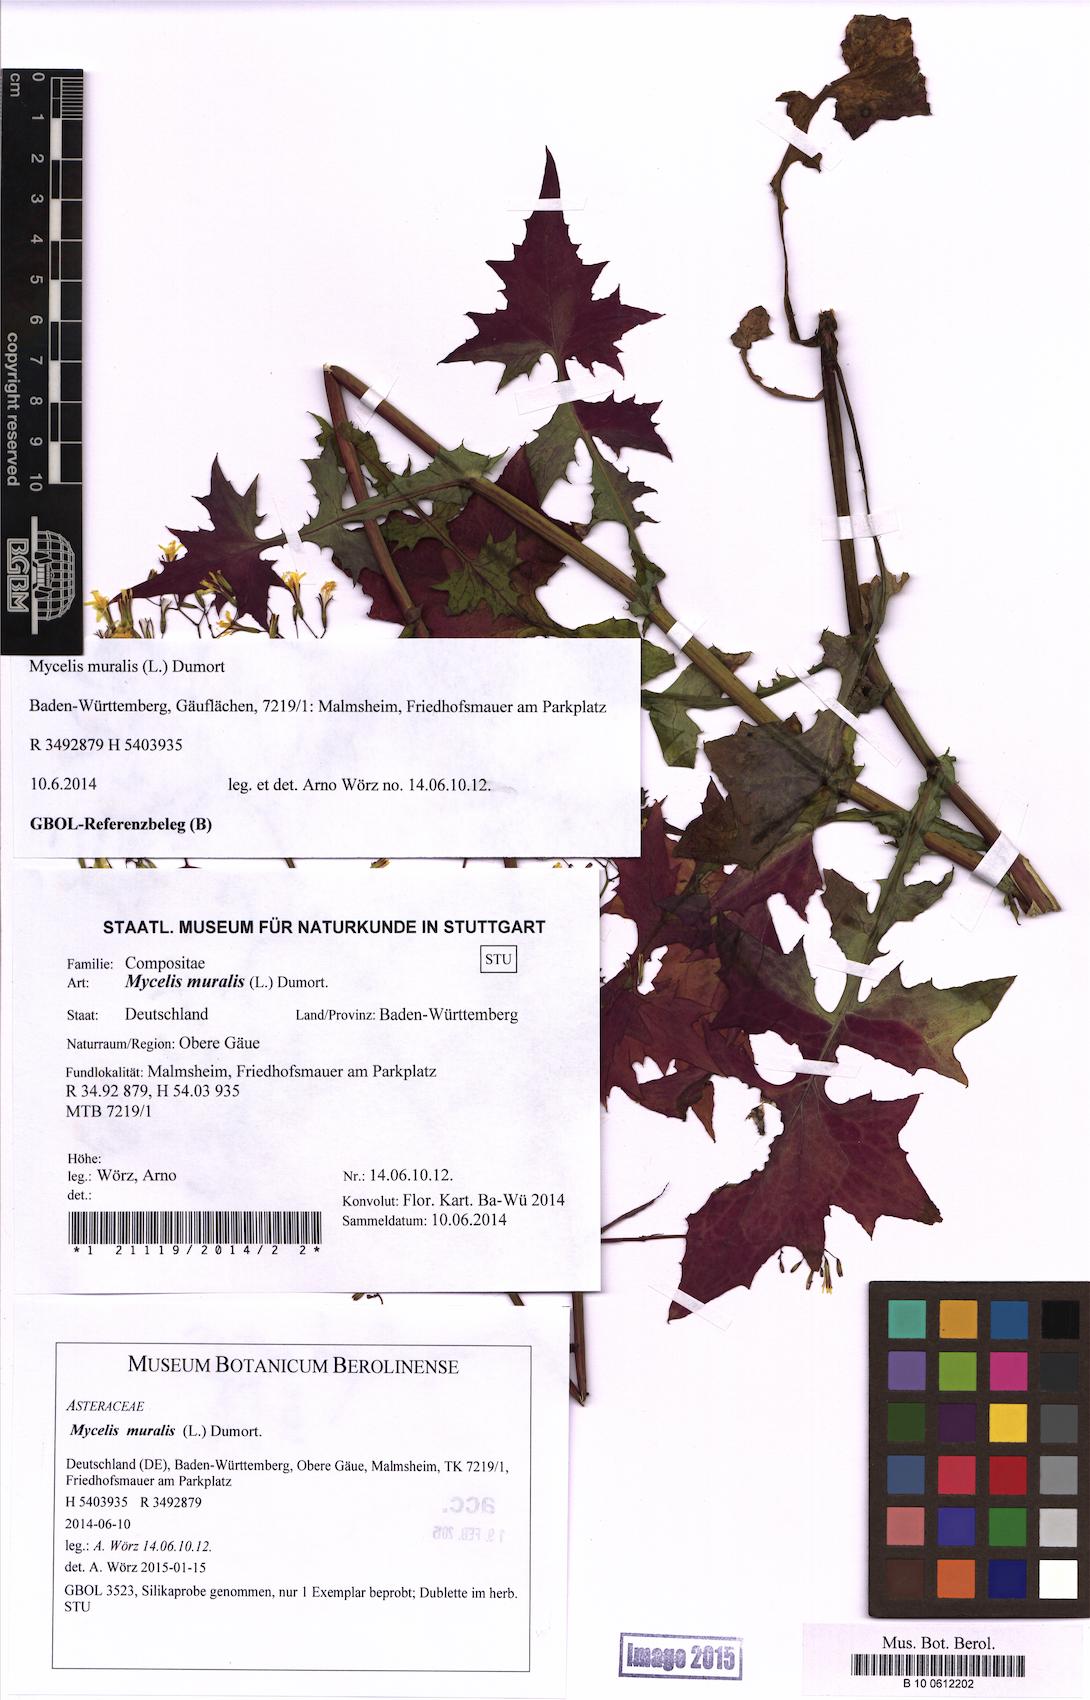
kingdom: Plantae
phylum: Tracheophyta
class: Magnoliopsida
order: Asterales
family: Asteraceae
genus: Mycelis
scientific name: Mycelis muralis
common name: Wall lettuce
